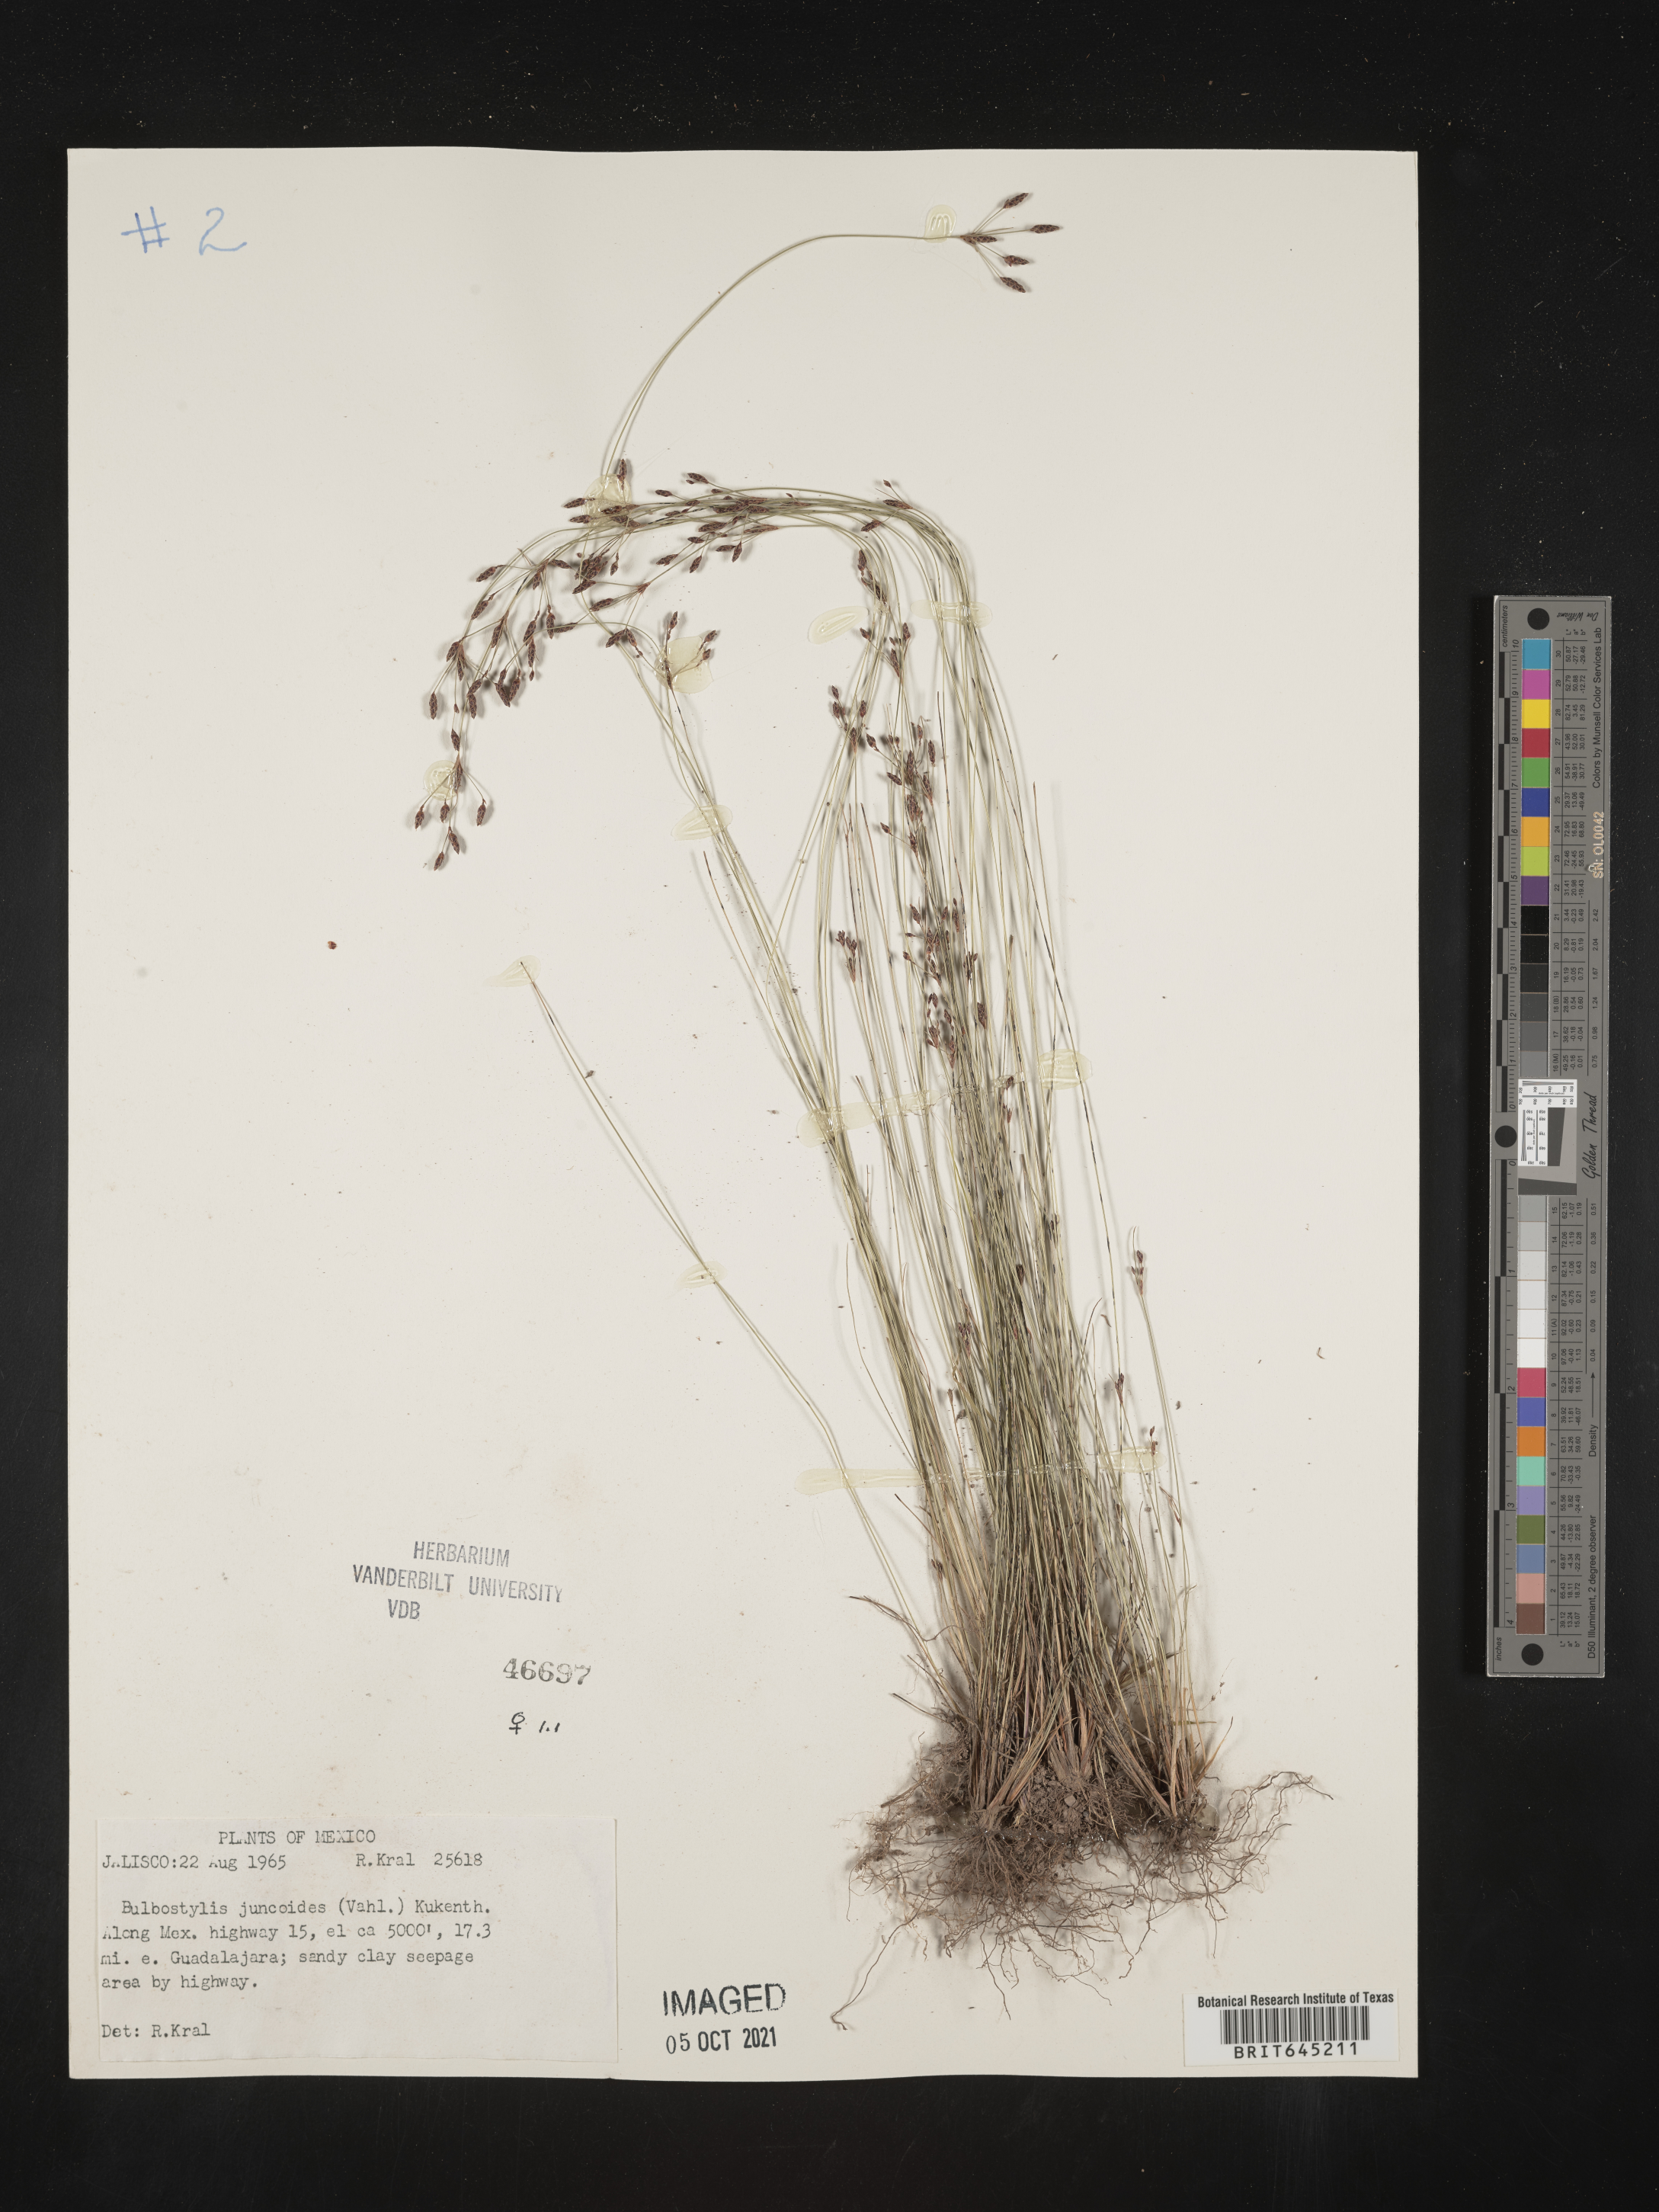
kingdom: Plantae
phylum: Tracheophyta
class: Liliopsida
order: Poales
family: Cyperaceae
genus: Bulbostylis
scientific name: Bulbostylis juncoides
